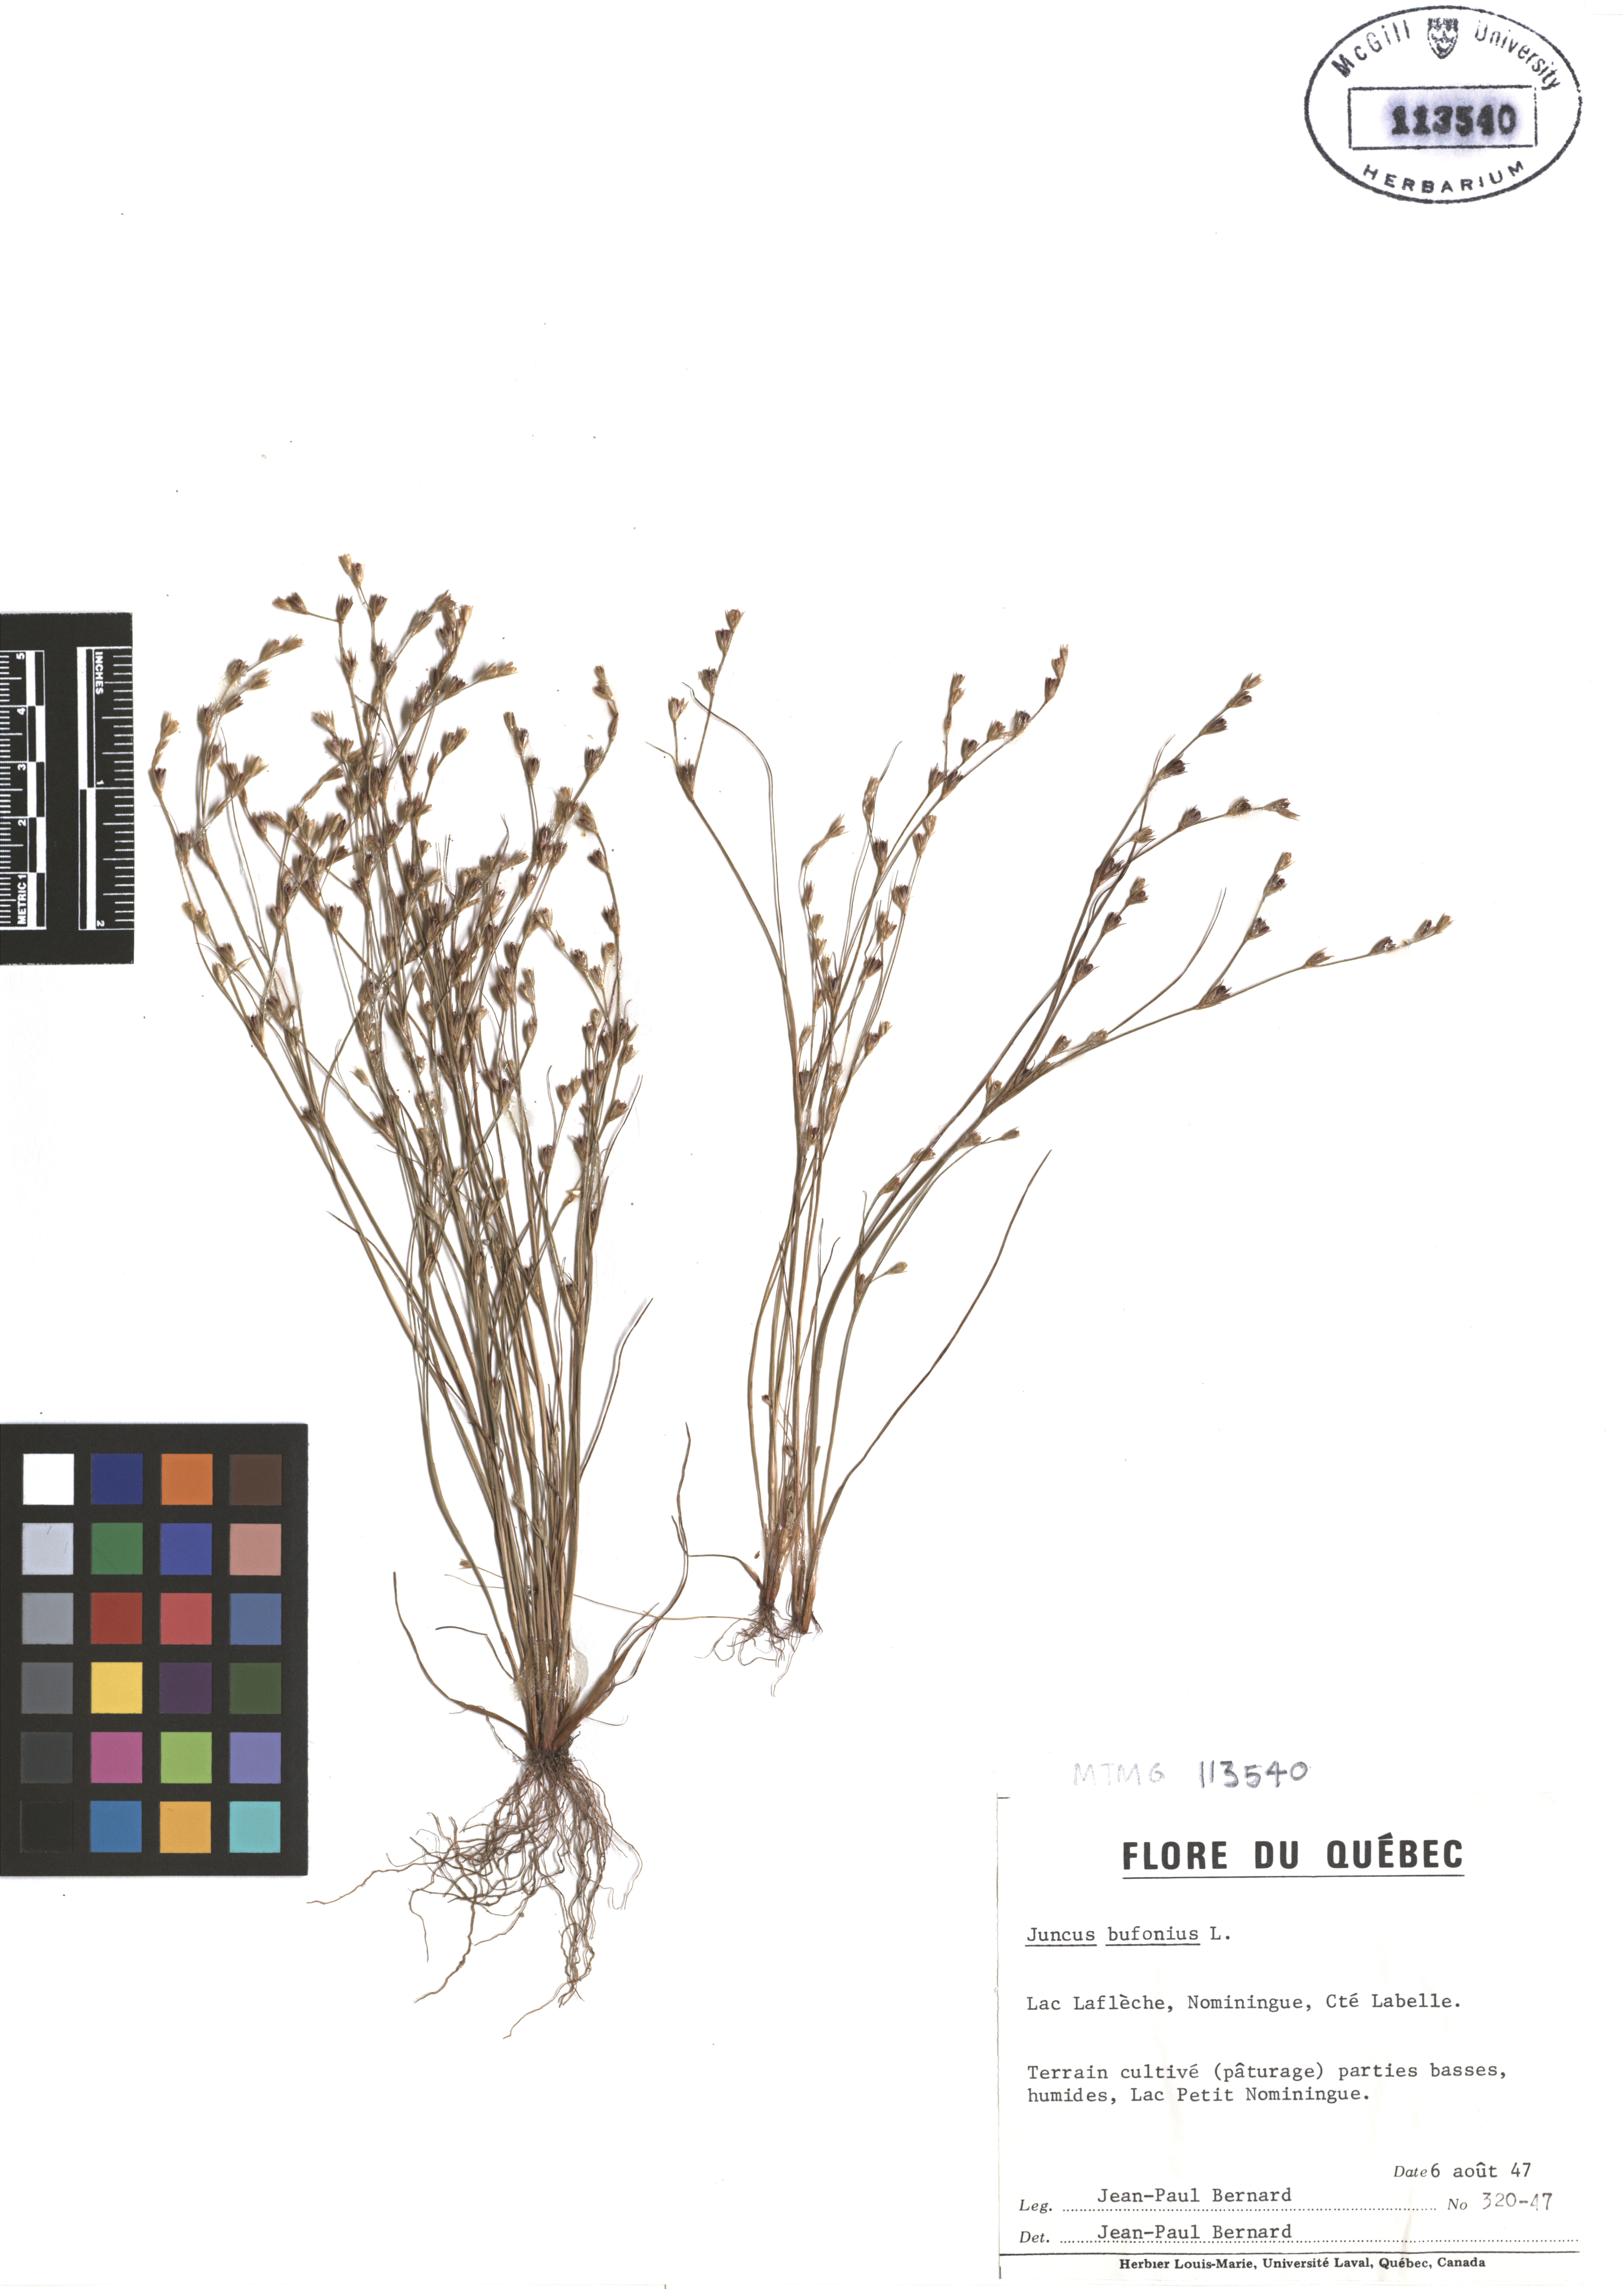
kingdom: Plantae
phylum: Tracheophyta
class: Liliopsida
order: Poales
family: Juncaceae
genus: Juncus
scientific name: Juncus bufonius
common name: Toad rush
